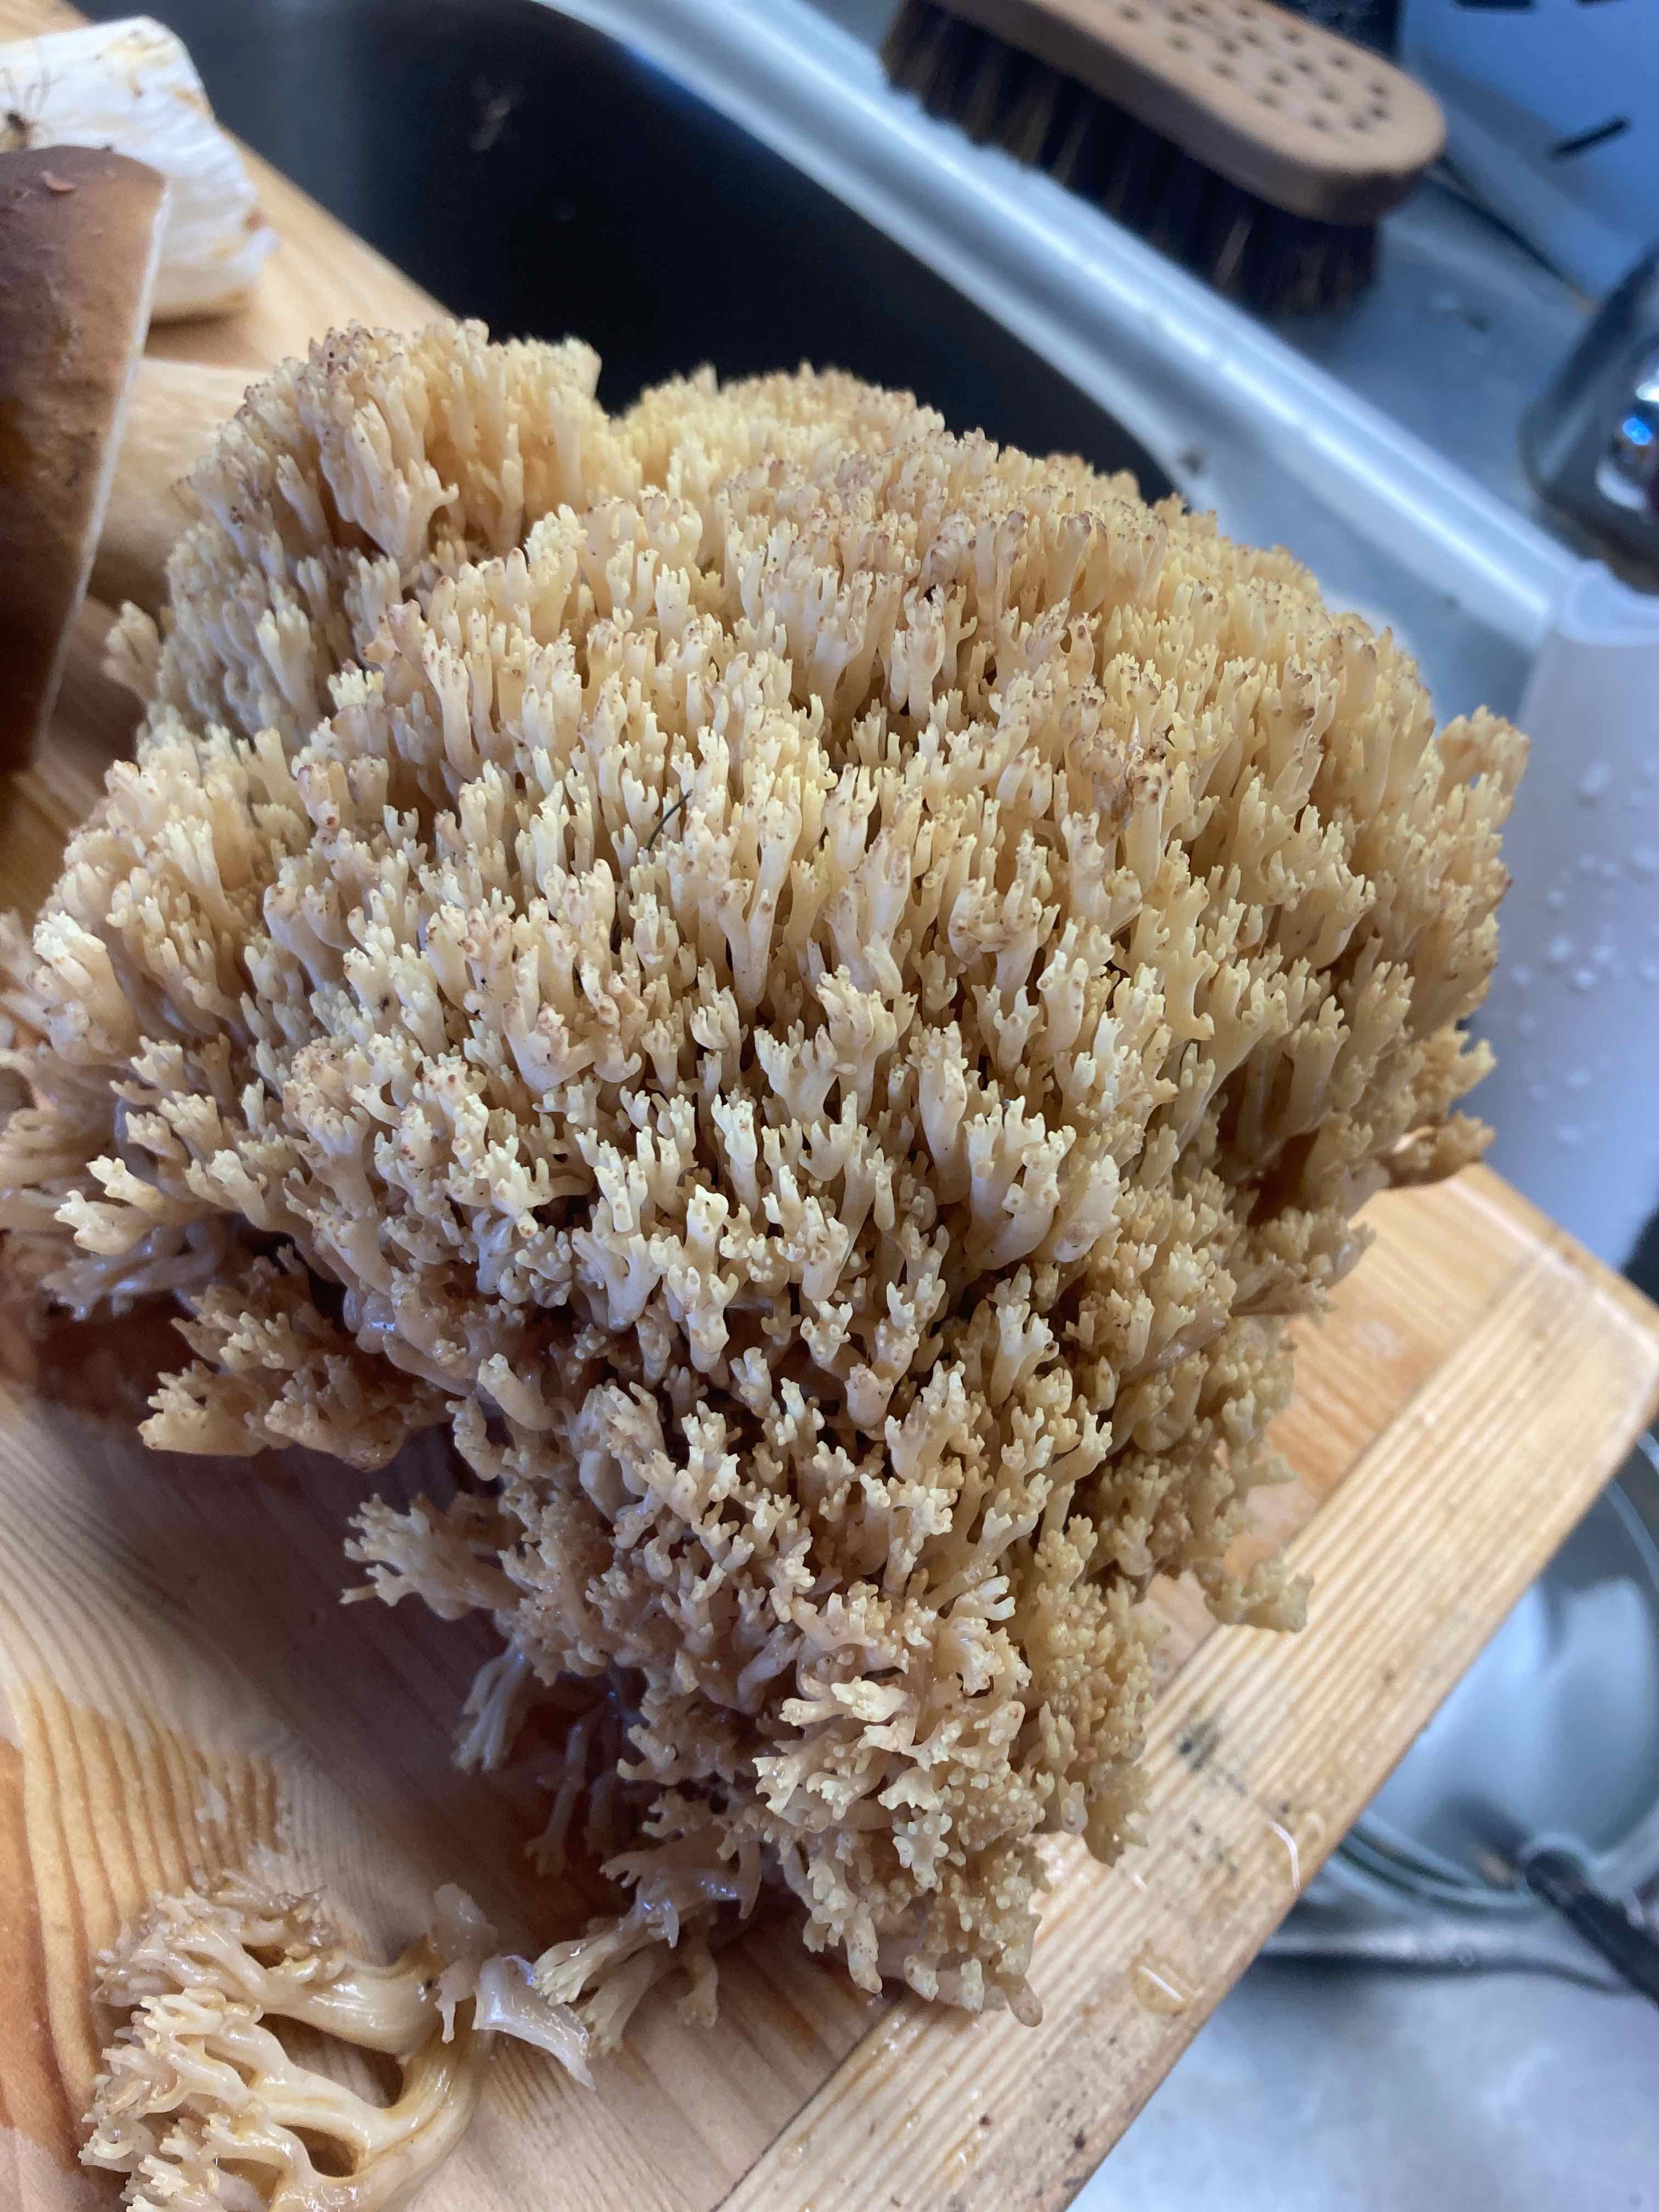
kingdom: Fungi
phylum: Basidiomycota
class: Agaricomycetes
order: Gomphales
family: Gomphaceae
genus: Ramaria
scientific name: Ramaria
